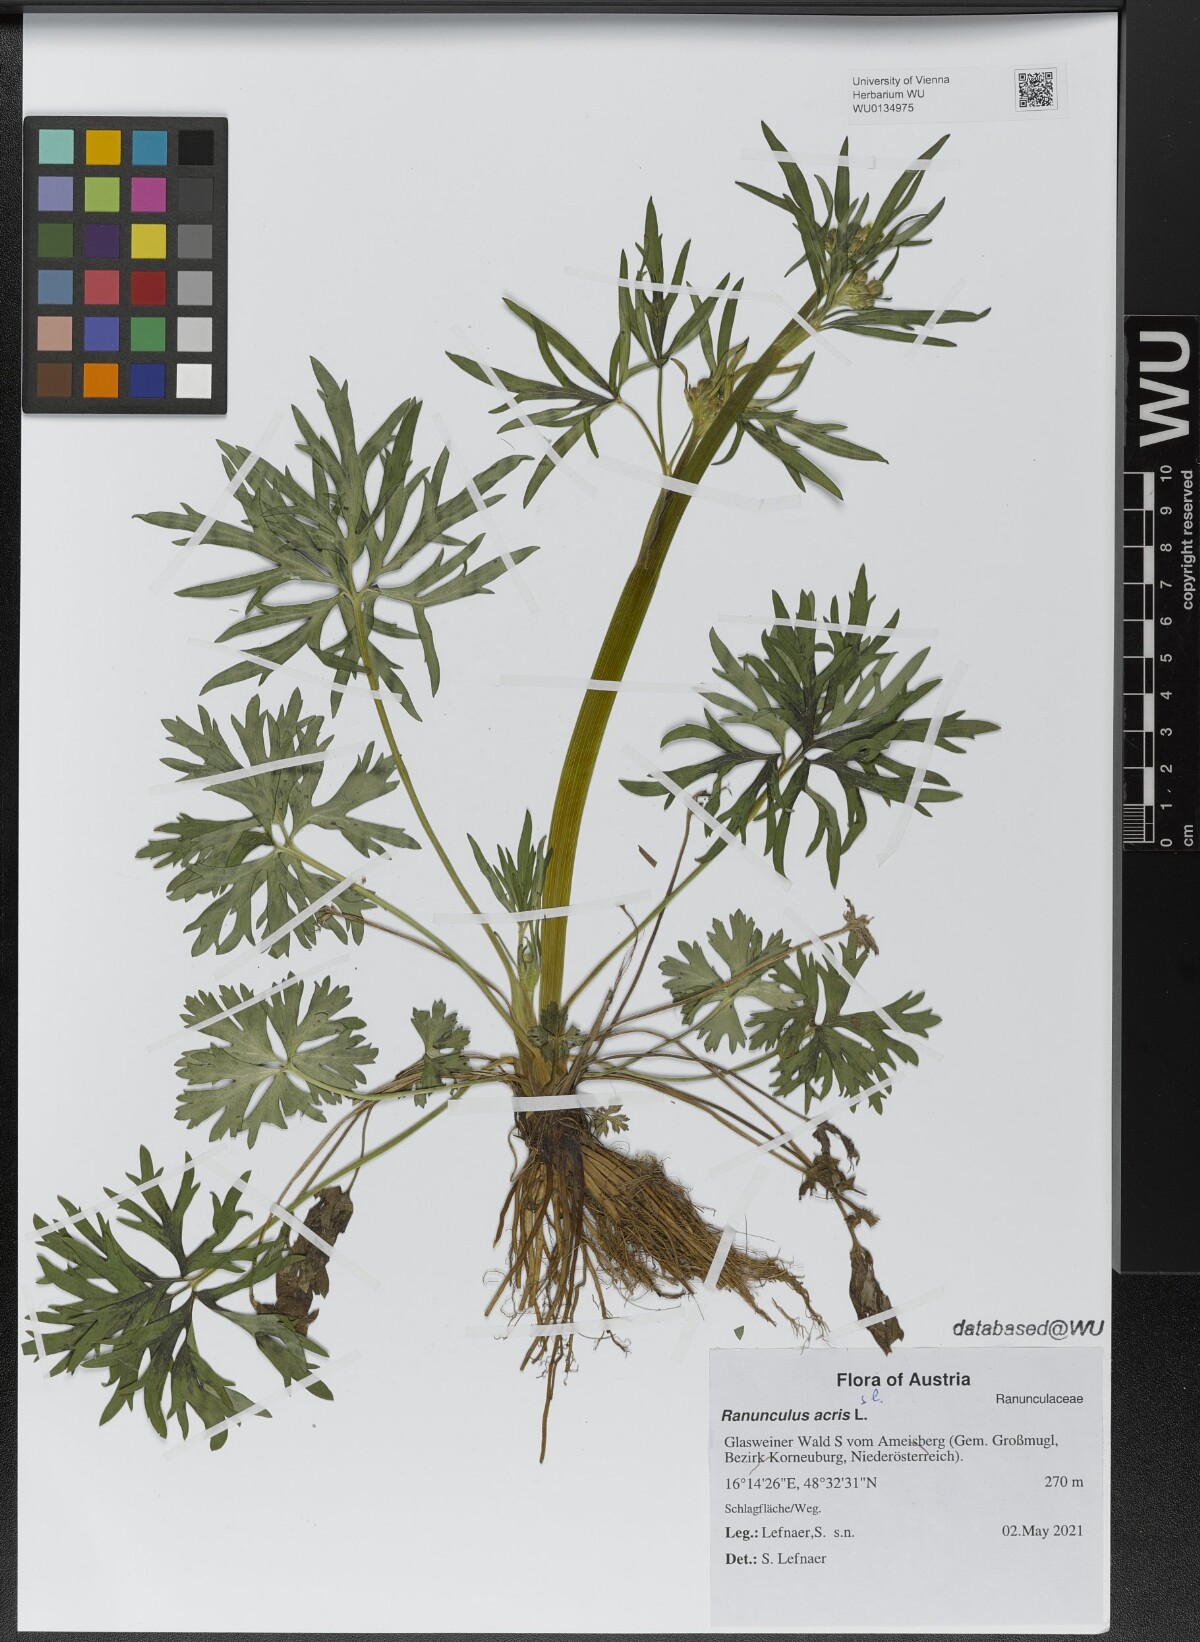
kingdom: Plantae
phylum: Tracheophyta
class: Magnoliopsida
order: Ranunculales
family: Ranunculaceae
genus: Ranunculus
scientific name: Ranunculus acris
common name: Meadow buttercup
